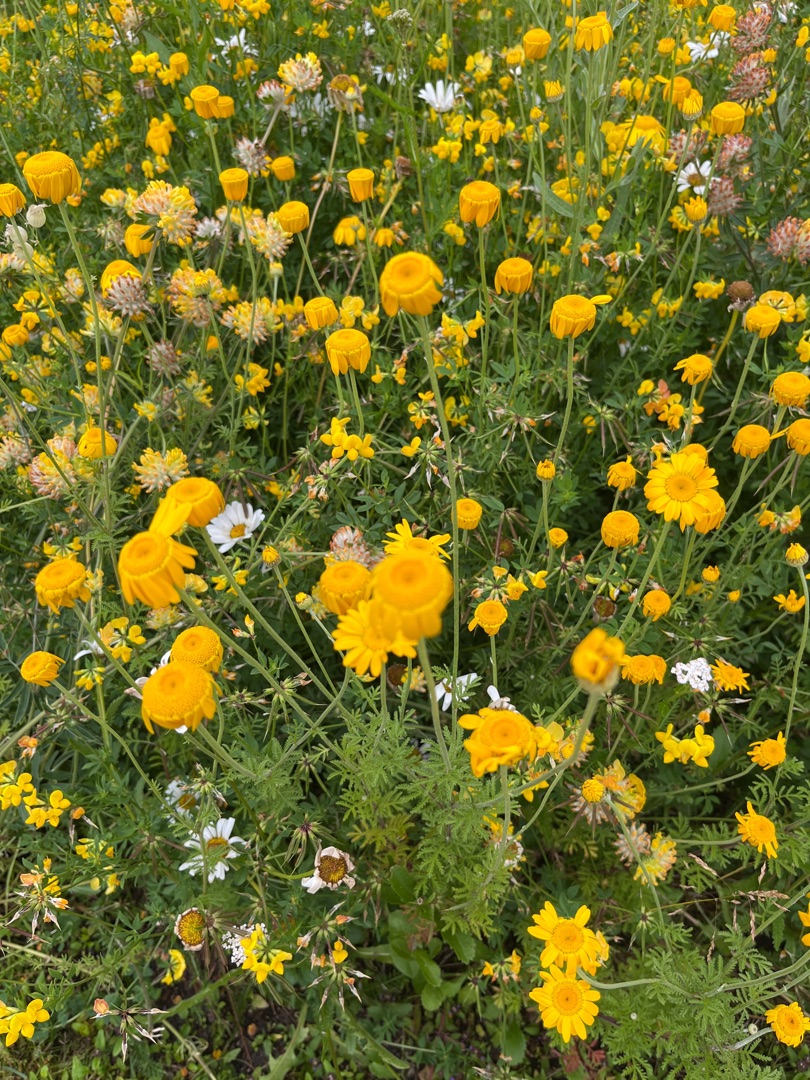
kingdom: Plantae
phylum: Tracheophyta
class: Magnoliopsida
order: Asterales
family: Asteraceae
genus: Cota
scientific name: Cota tinctoria
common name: Farve-gåseurt
